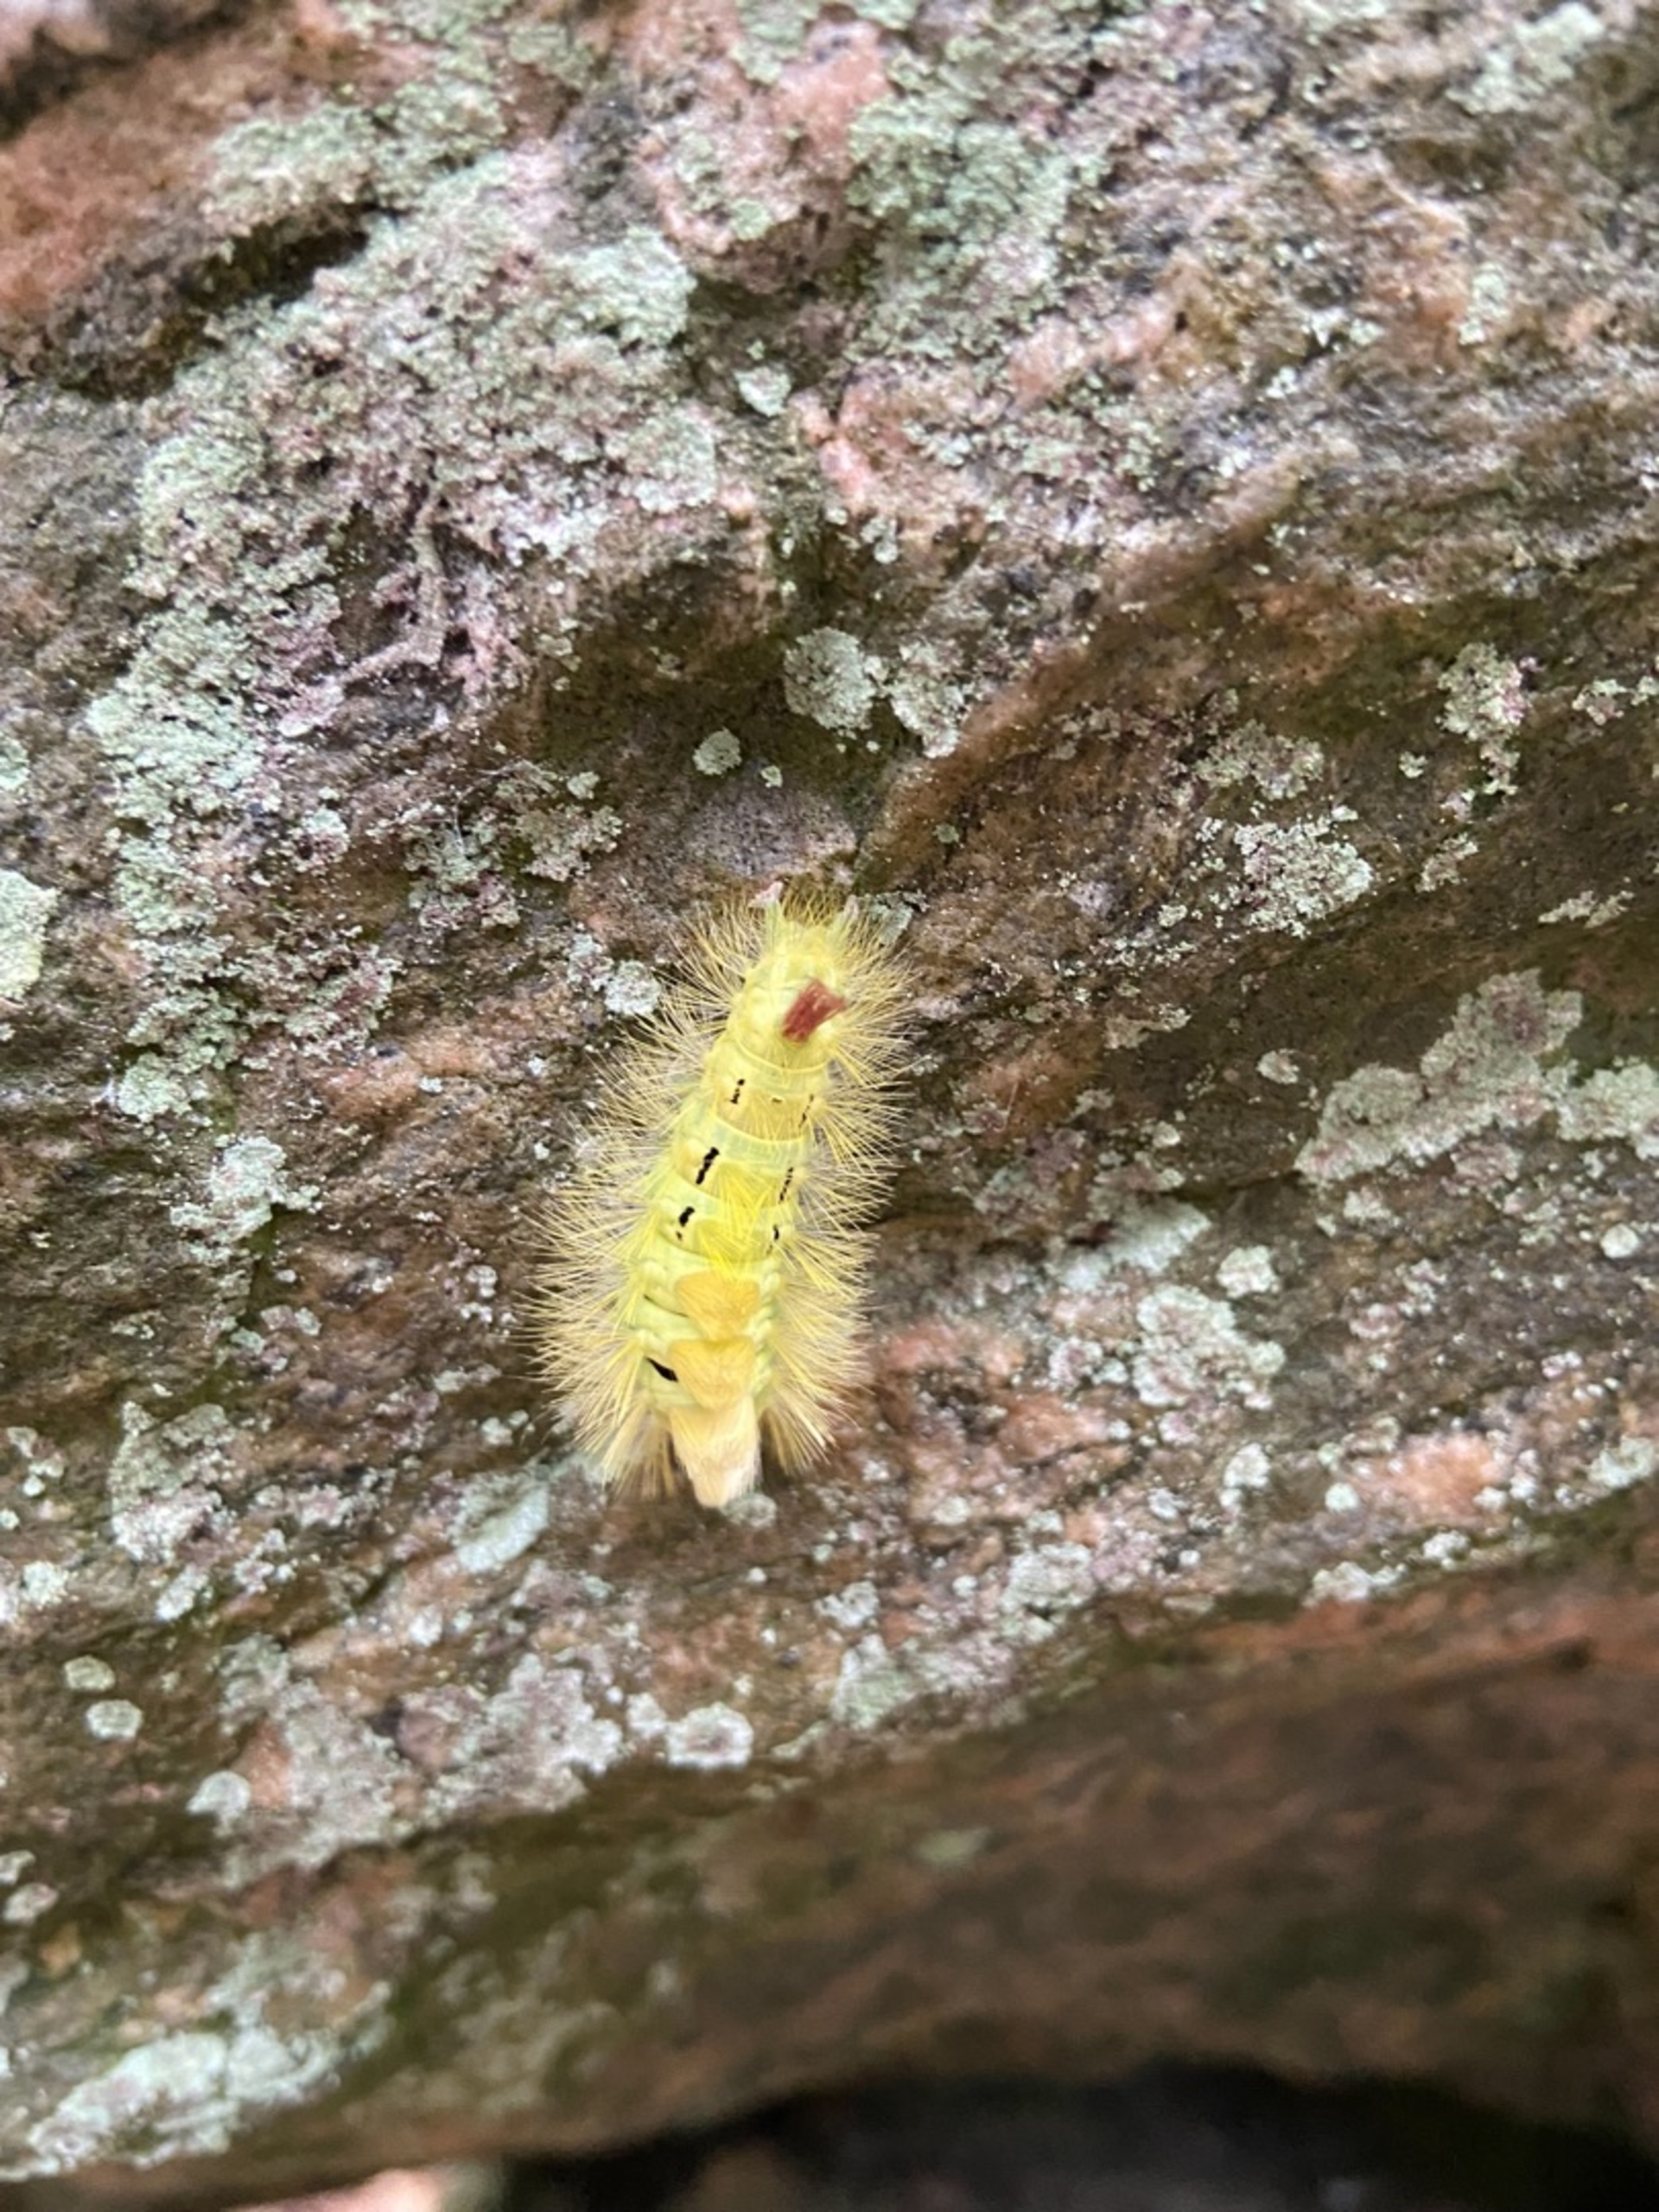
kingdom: Animalia
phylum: Arthropoda
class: Insecta
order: Lepidoptera
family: Erebidae
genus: Calliteara
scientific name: Calliteara pudibunda
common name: Bøgenonne
